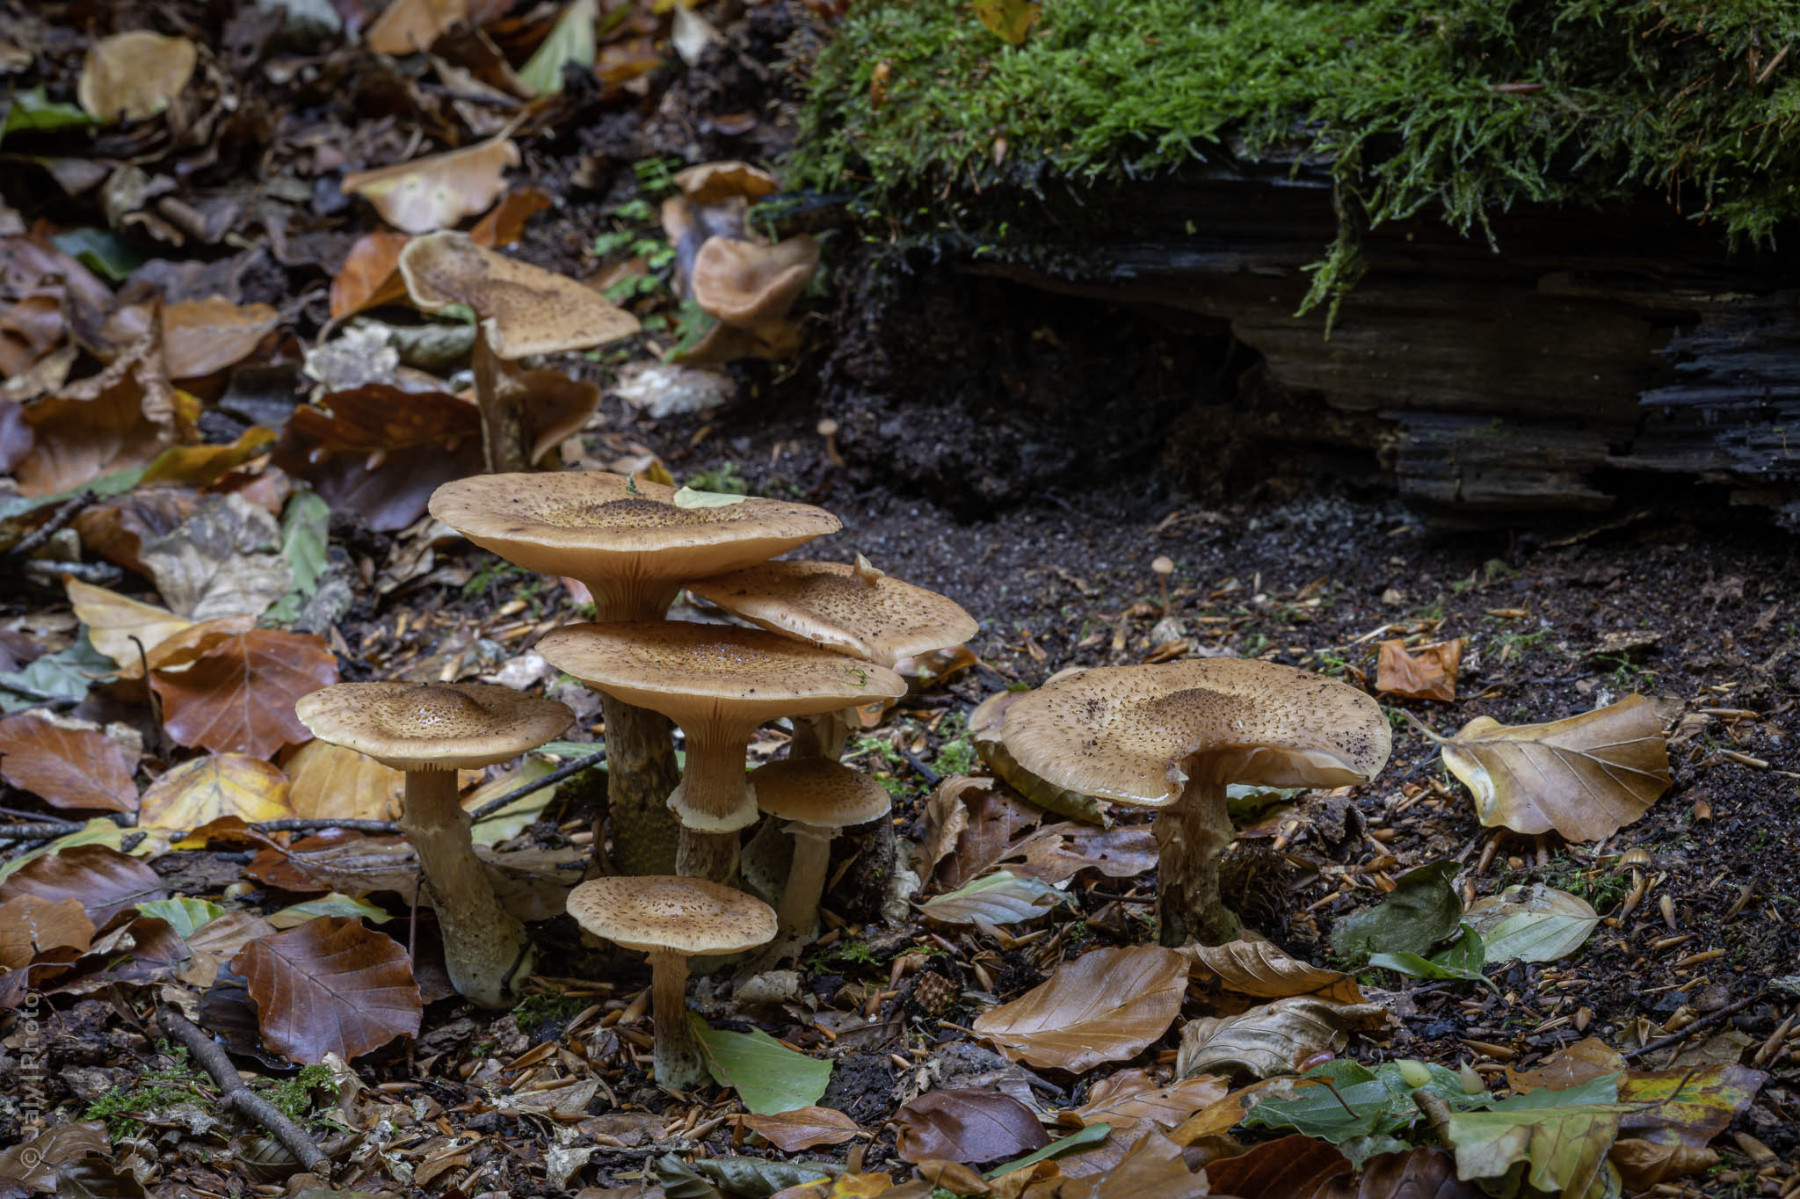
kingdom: Fungi
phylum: Basidiomycota
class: Agaricomycetes
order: Agaricales
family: Physalacriaceae
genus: Armillaria
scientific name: Armillaria lutea
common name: køllestokket honningsvamp
